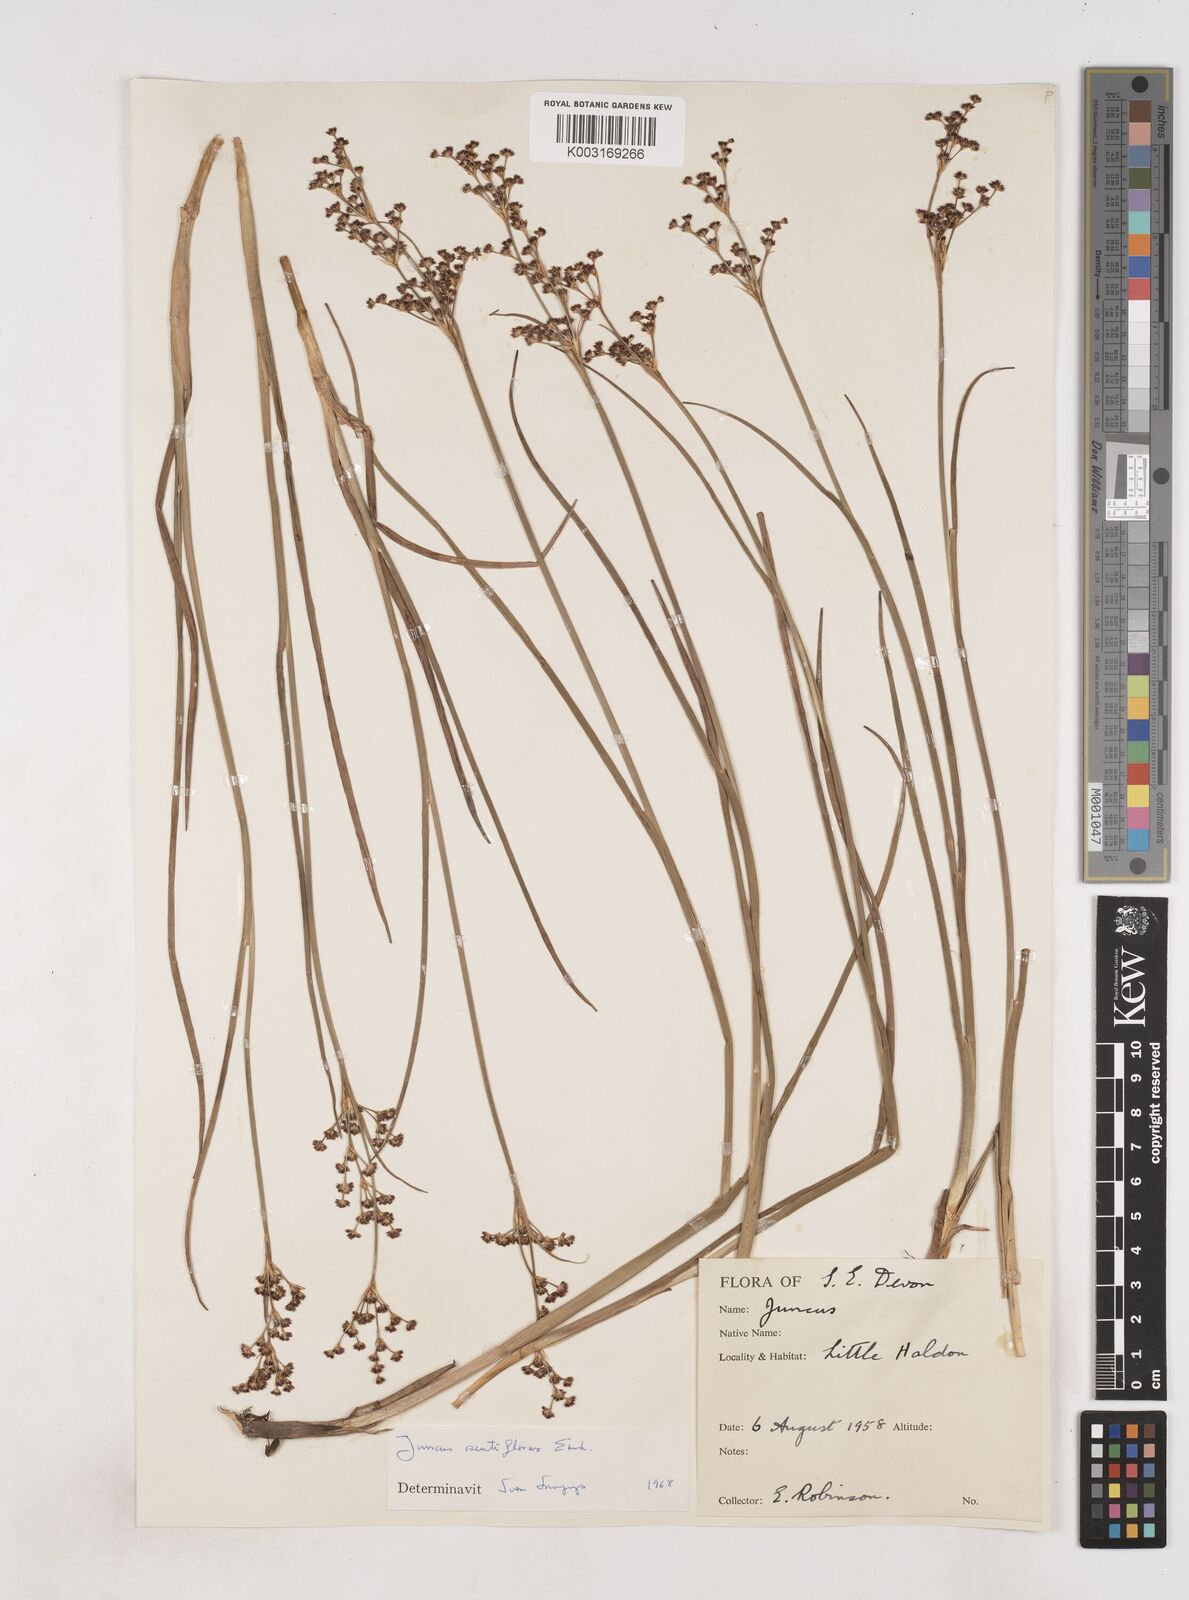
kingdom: Plantae
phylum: Tracheophyta
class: Liliopsida
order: Poales
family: Juncaceae
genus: Juncus
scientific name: Juncus acutiflorus
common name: Sharp-flowered rush
